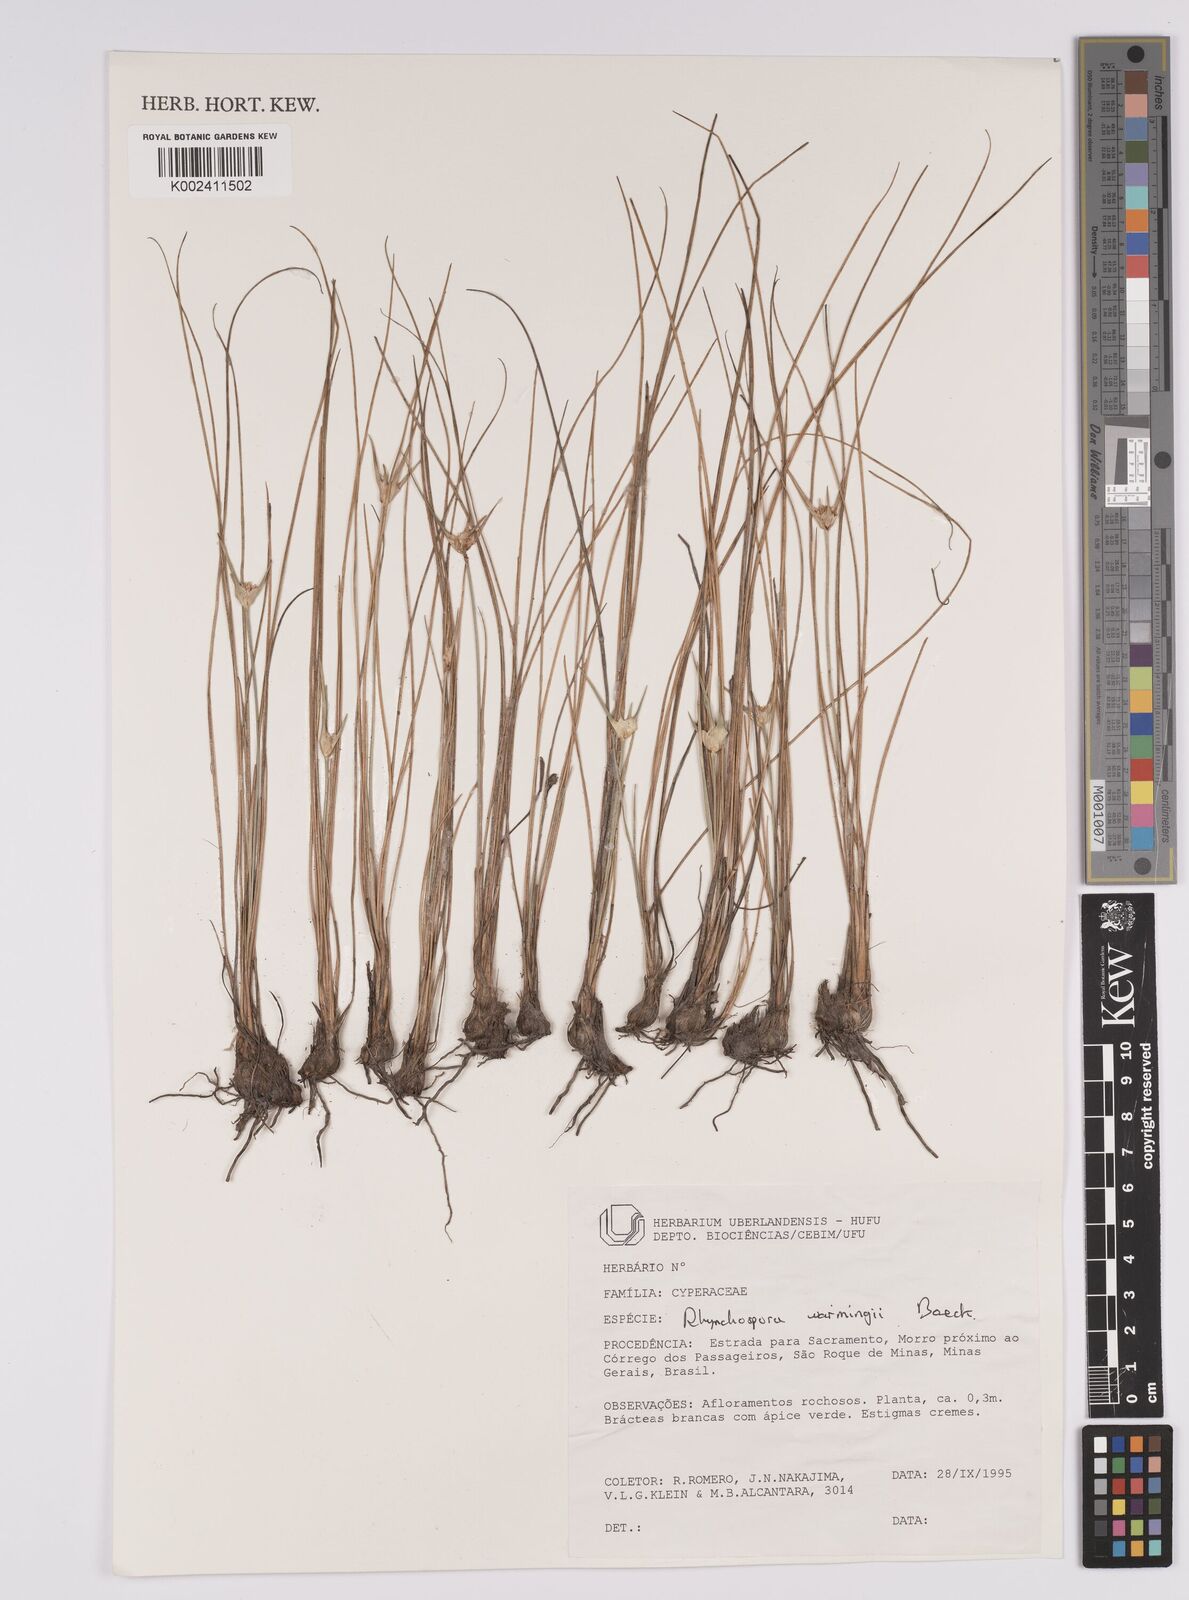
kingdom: Plantae
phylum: Tracheophyta
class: Liliopsida
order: Poales
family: Cyperaceae
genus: Rhynchospora
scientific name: Rhynchospora warmingii
